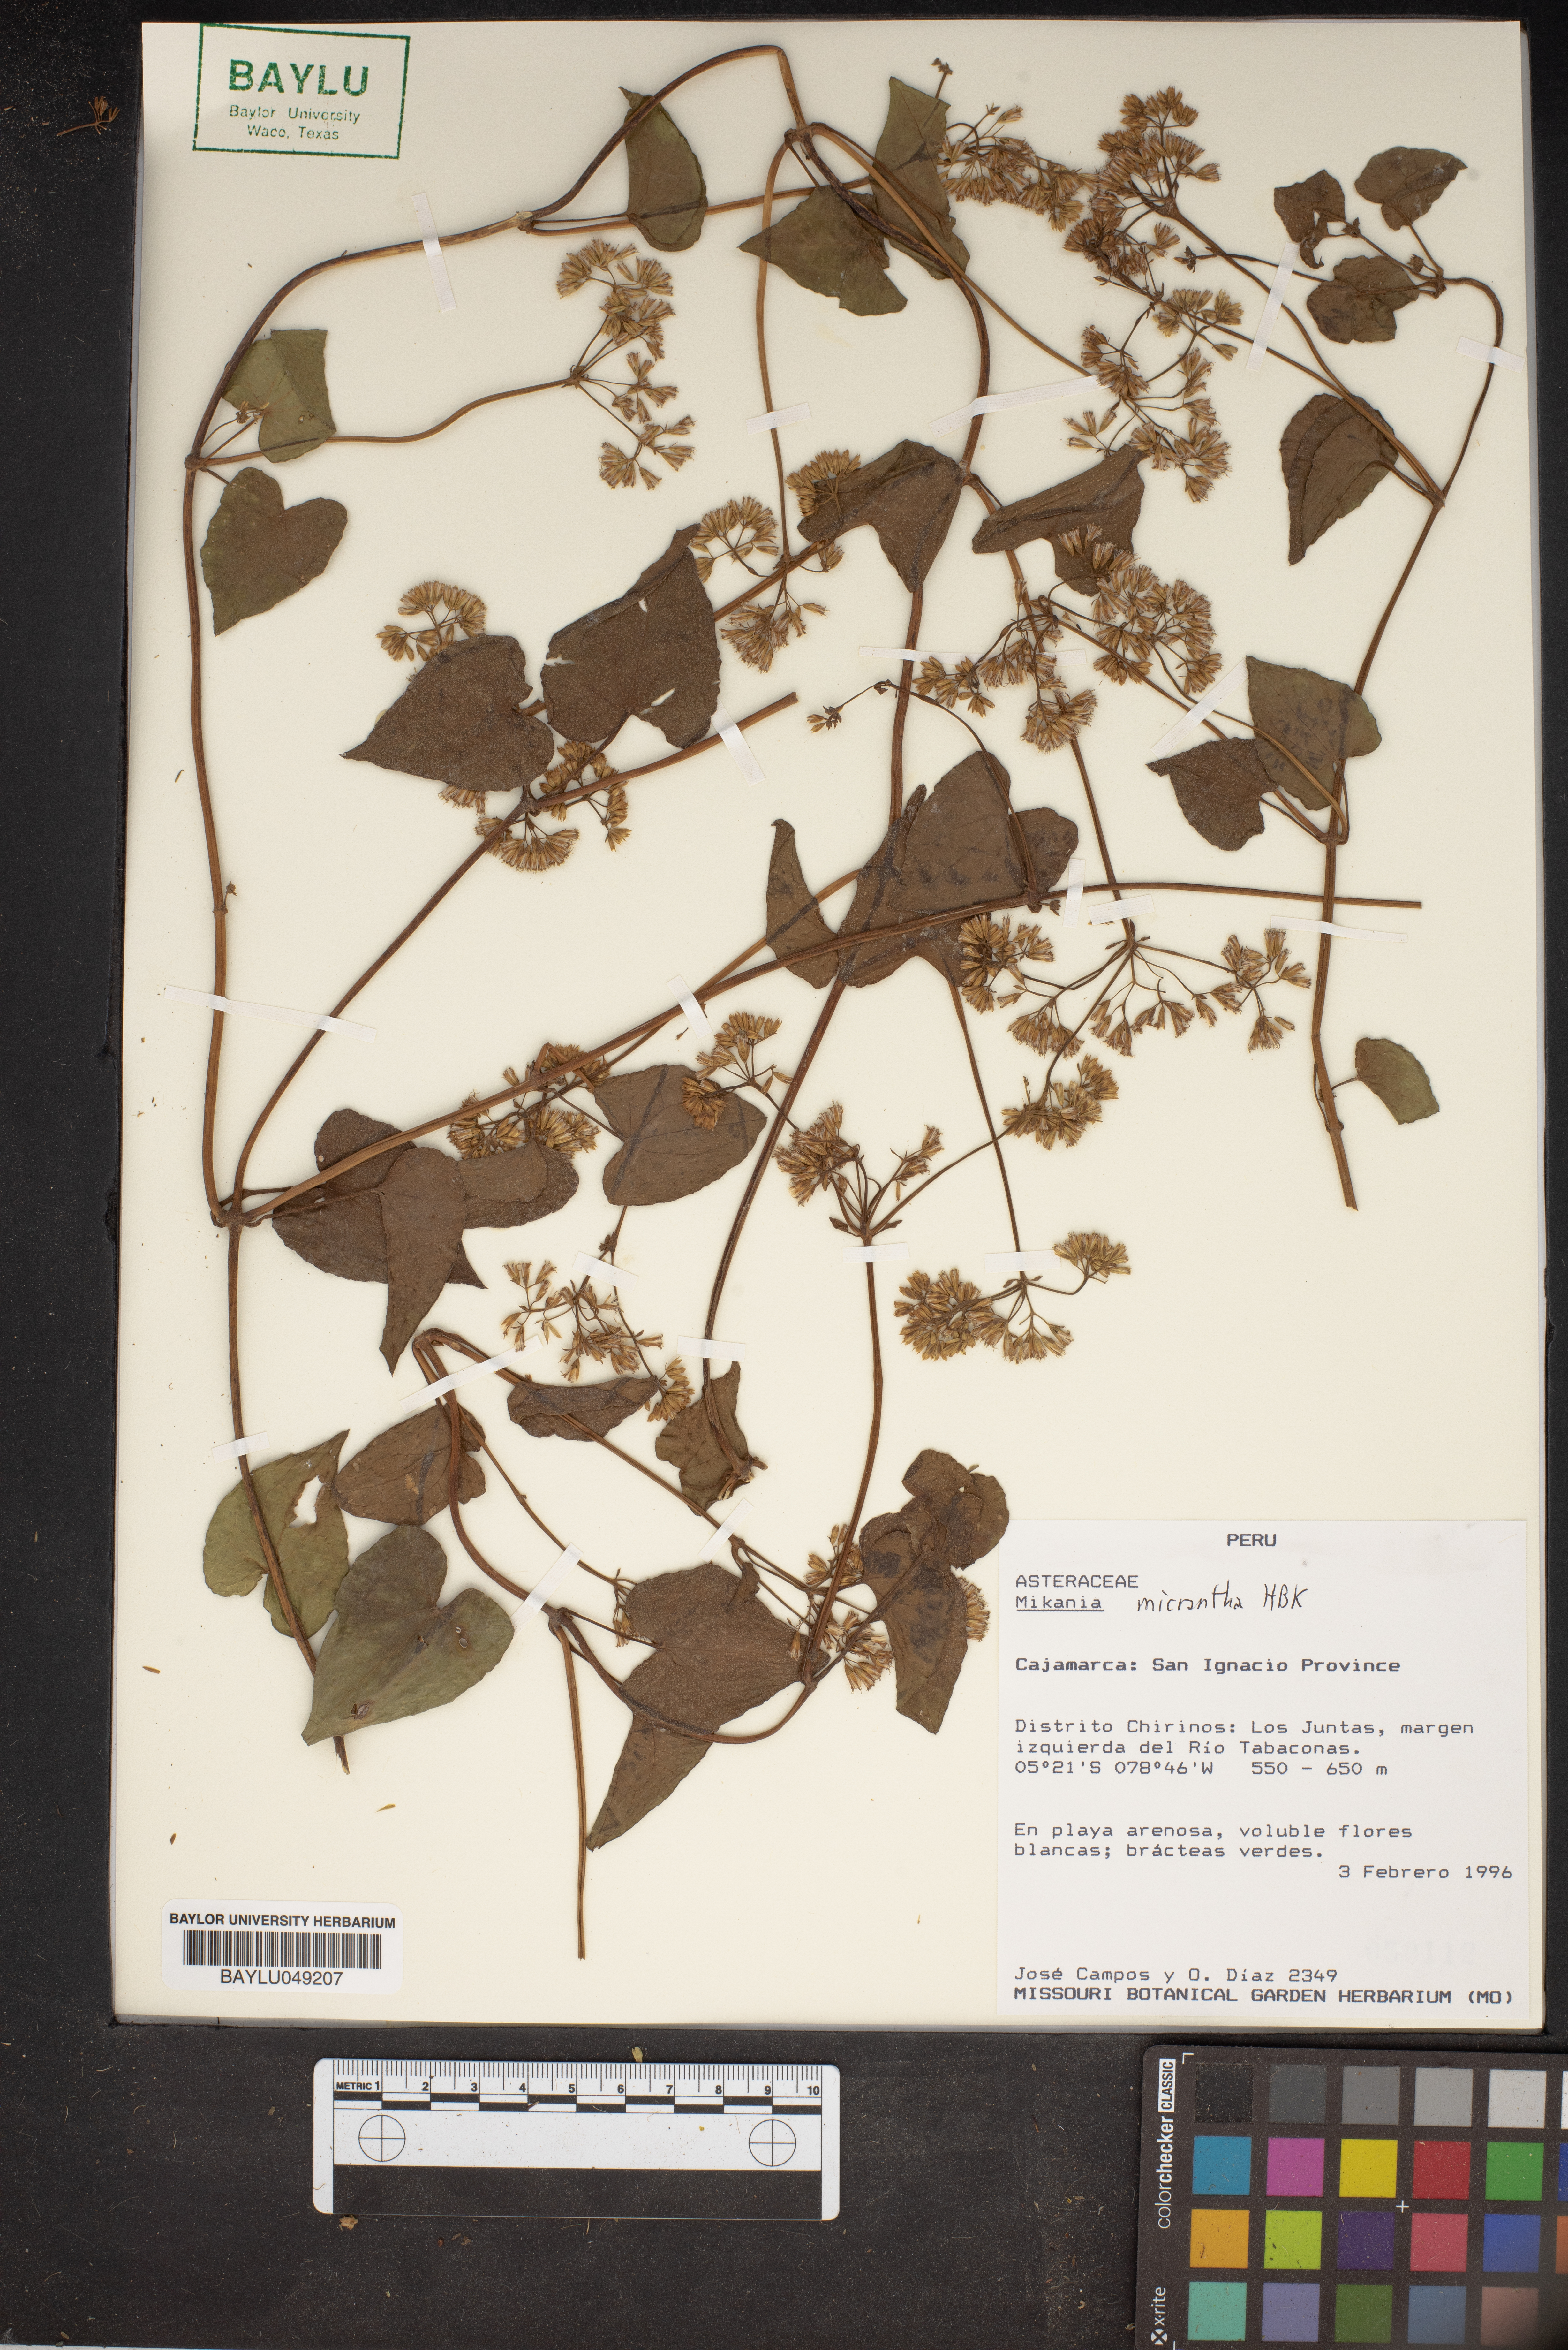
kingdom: Plantae
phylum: Tracheophyta
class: Magnoliopsida
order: Asterales
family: Asteraceae
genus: Mikania
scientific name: Mikania micrantha
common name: Mile-a-minute
